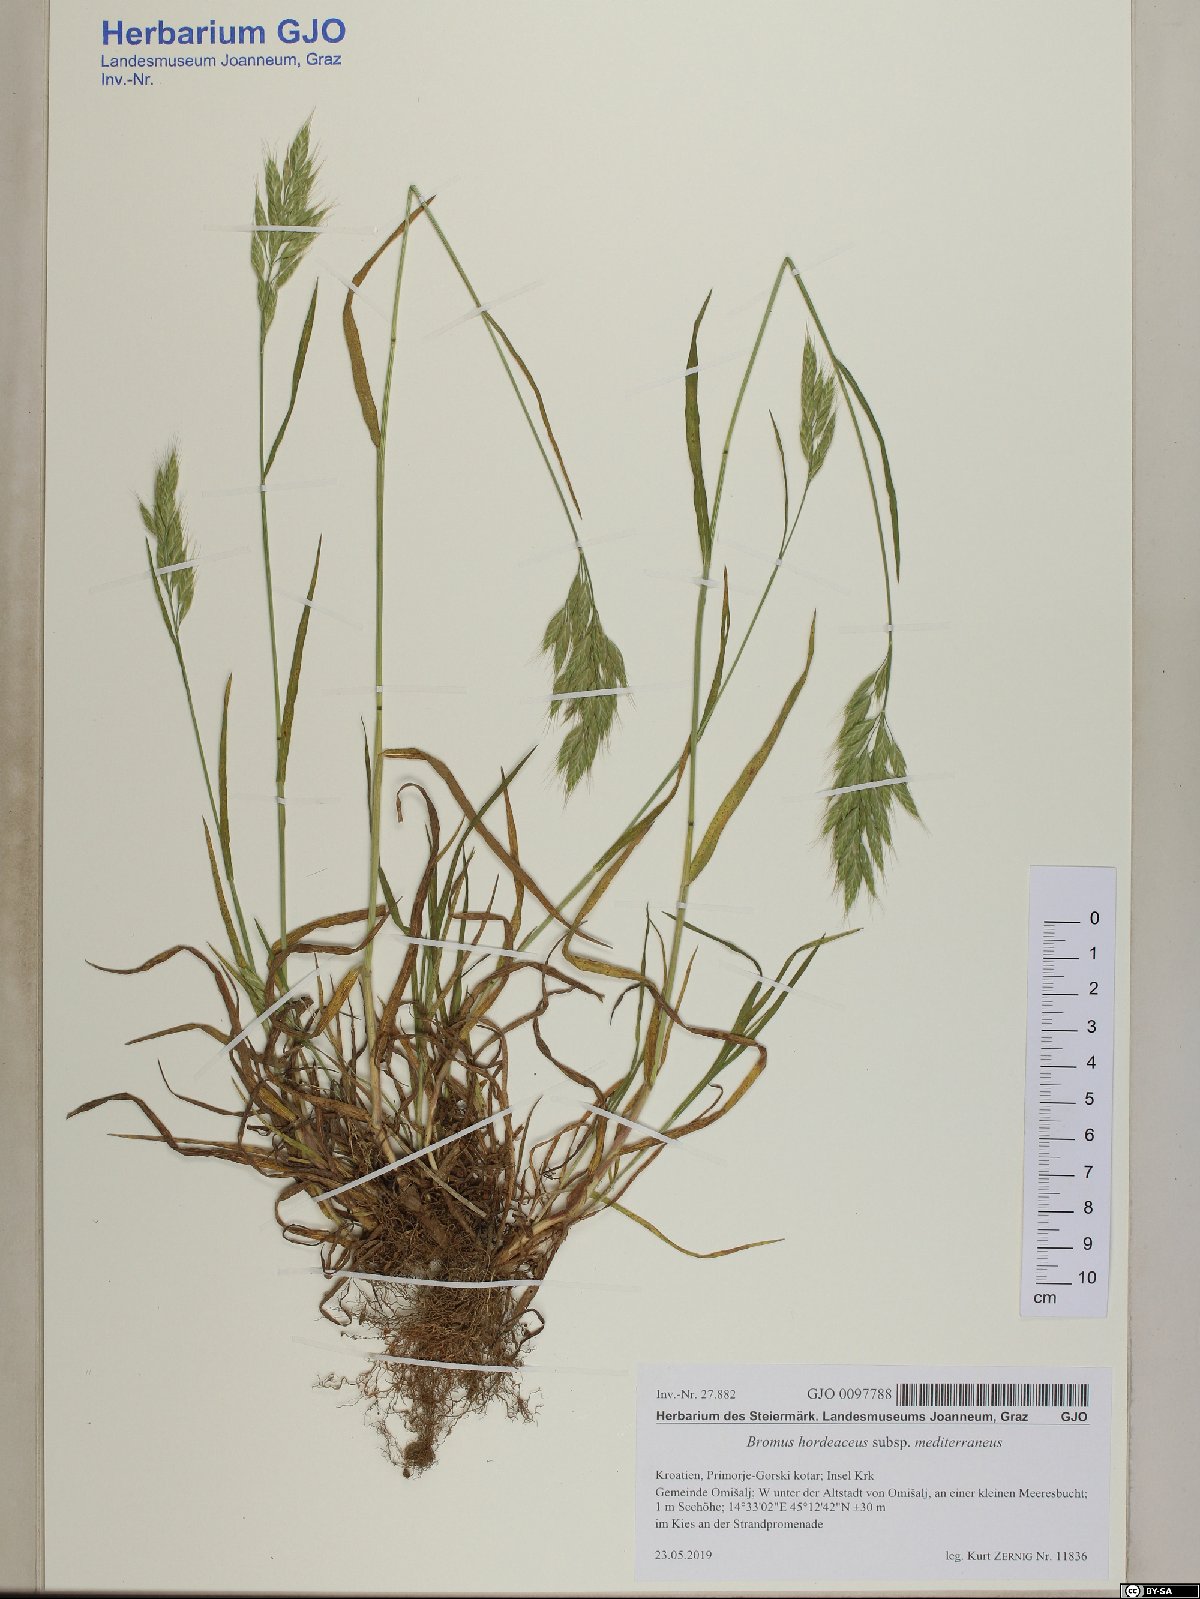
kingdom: Plantae
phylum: Tracheophyta
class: Liliopsida
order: Poales
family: Poaceae
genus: Bromus
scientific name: Bromus hordeaceus
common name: Soft brome
